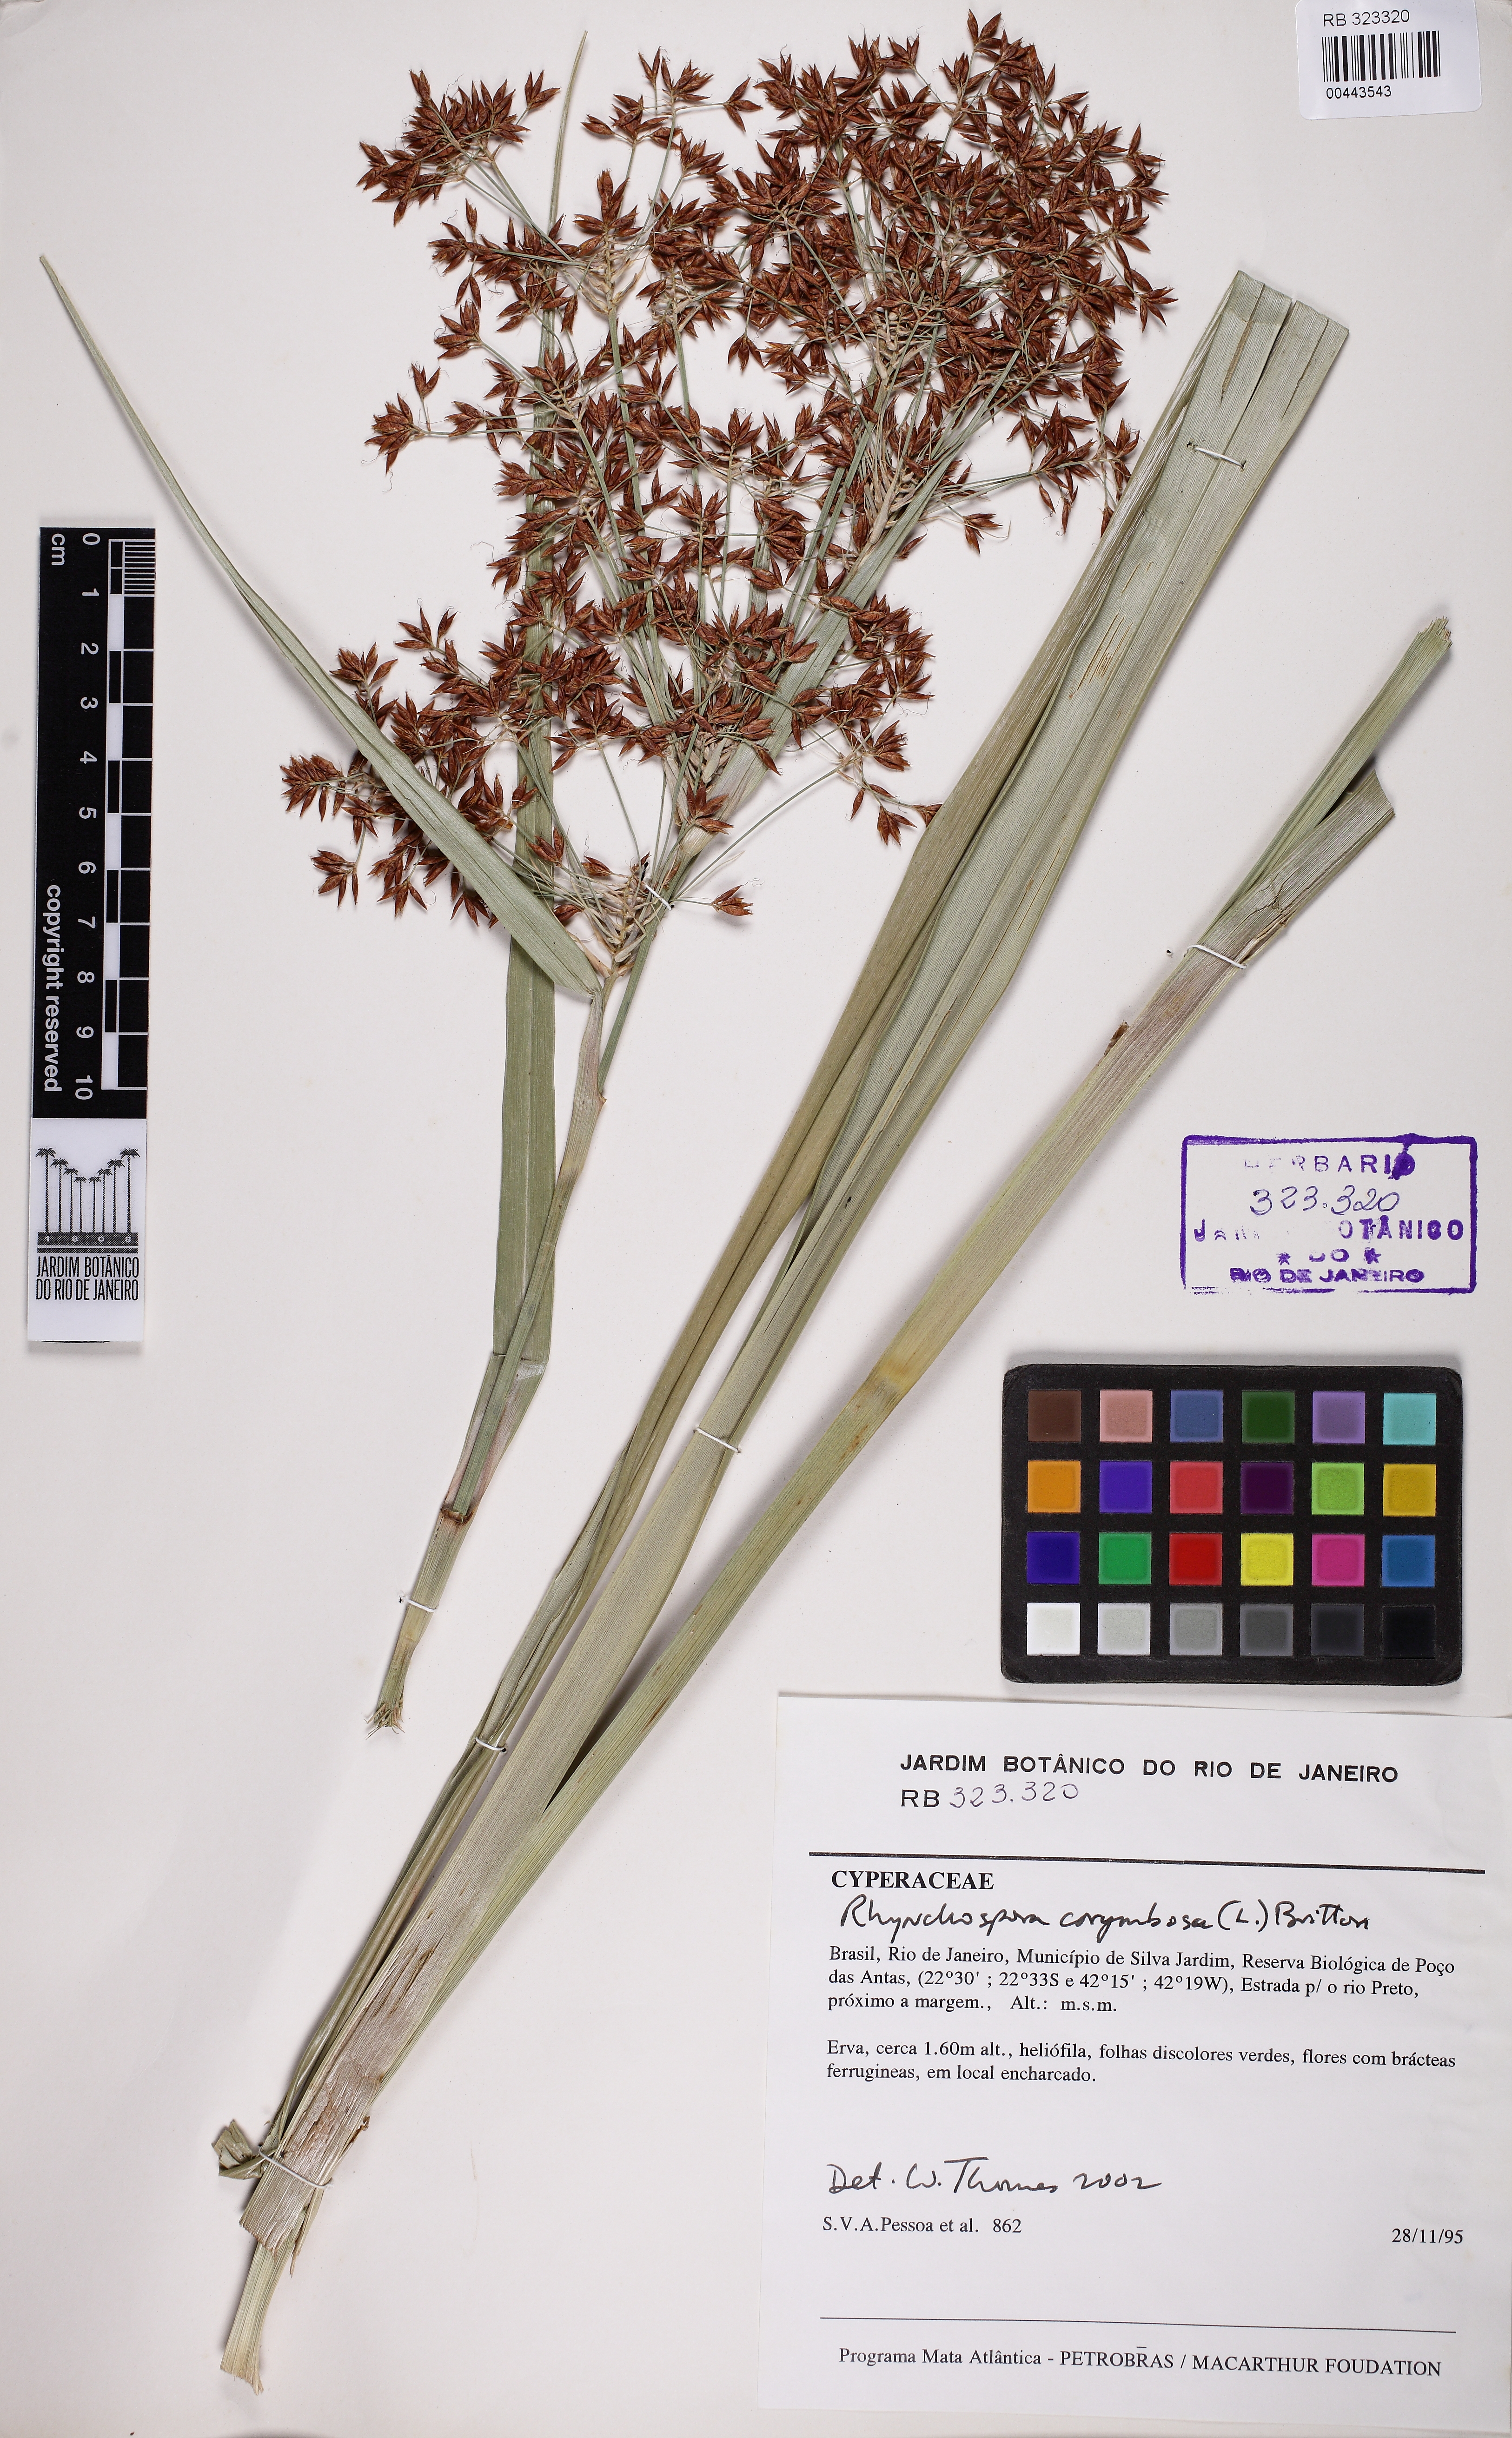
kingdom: Plantae
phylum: Tracheophyta
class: Liliopsida
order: Poales
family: Cyperaceae
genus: Rhynchospora
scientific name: Rhynchospora pedersenii
